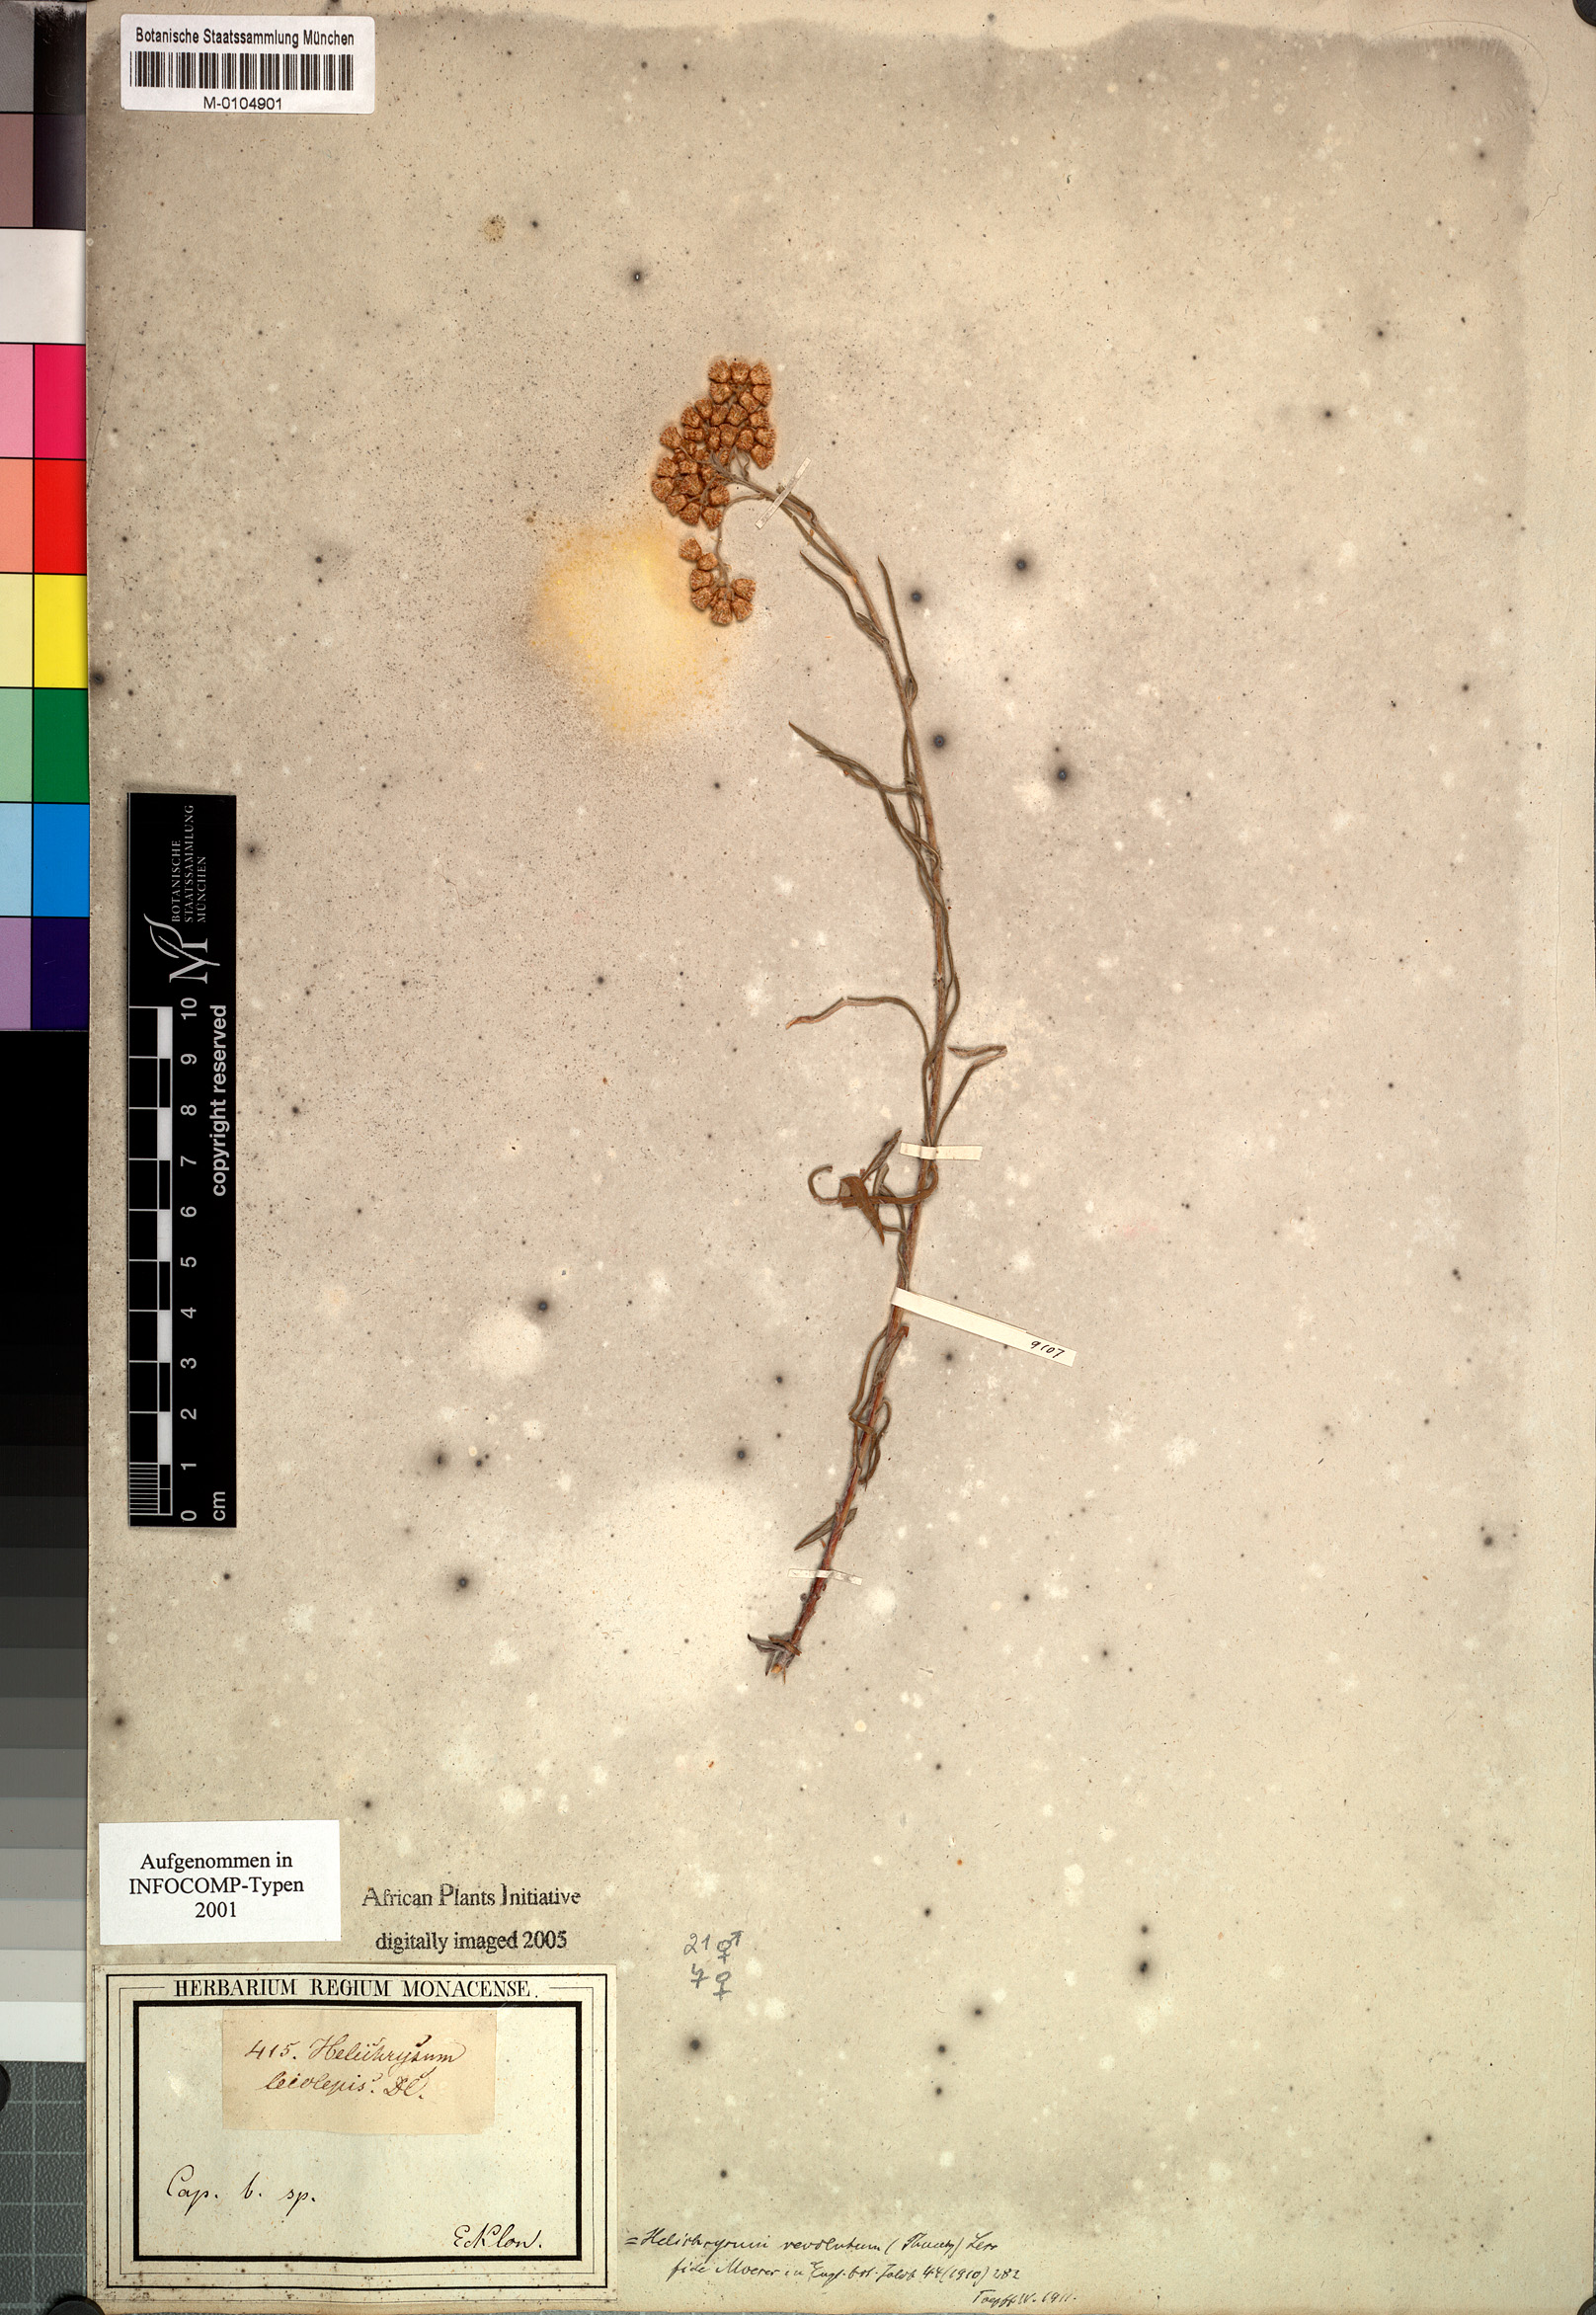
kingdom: Plantae
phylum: Tracheophyta
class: Magnoliopsida
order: Asterales
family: Asteraceae
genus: Helichrysum
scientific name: Helichrysum revolutum
